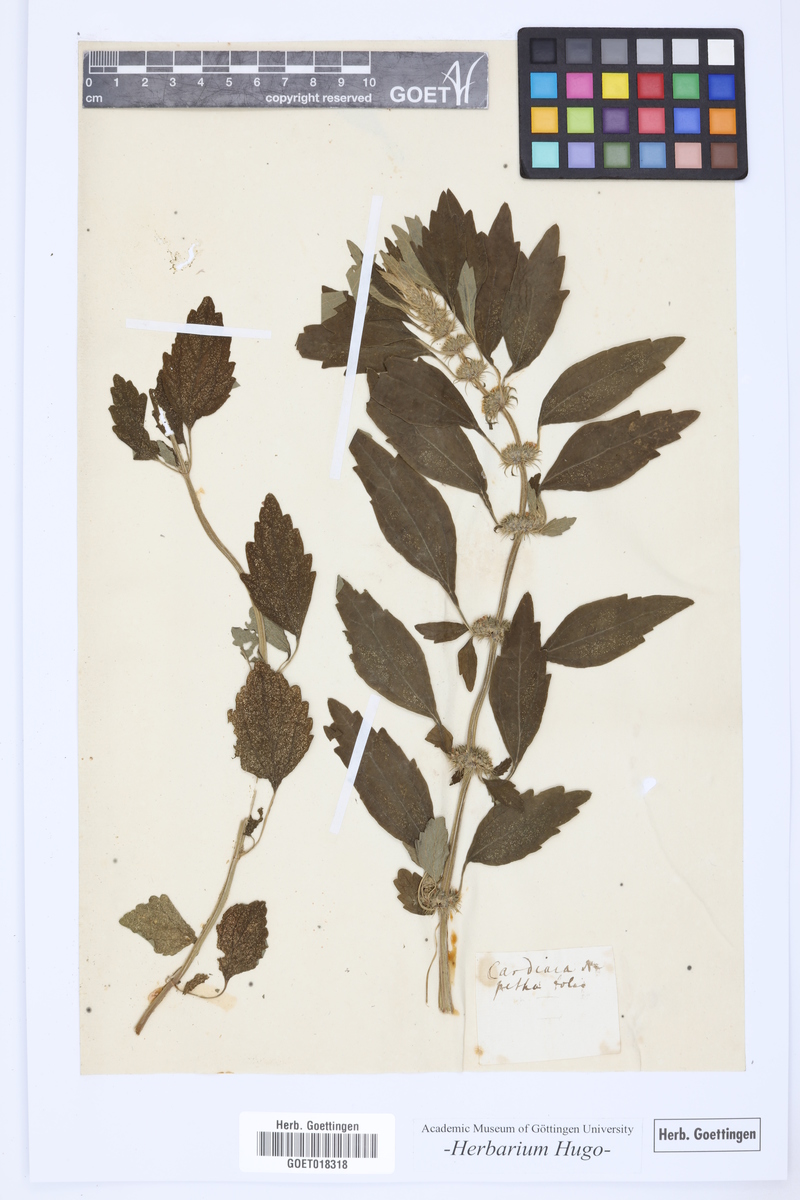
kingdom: Plantae
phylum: Tracheophyta
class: Magnoliopsida
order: Lamiales
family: Lamiaceae
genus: Leonotis
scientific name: Leonotis nepetifolia
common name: Christmas candlestick
